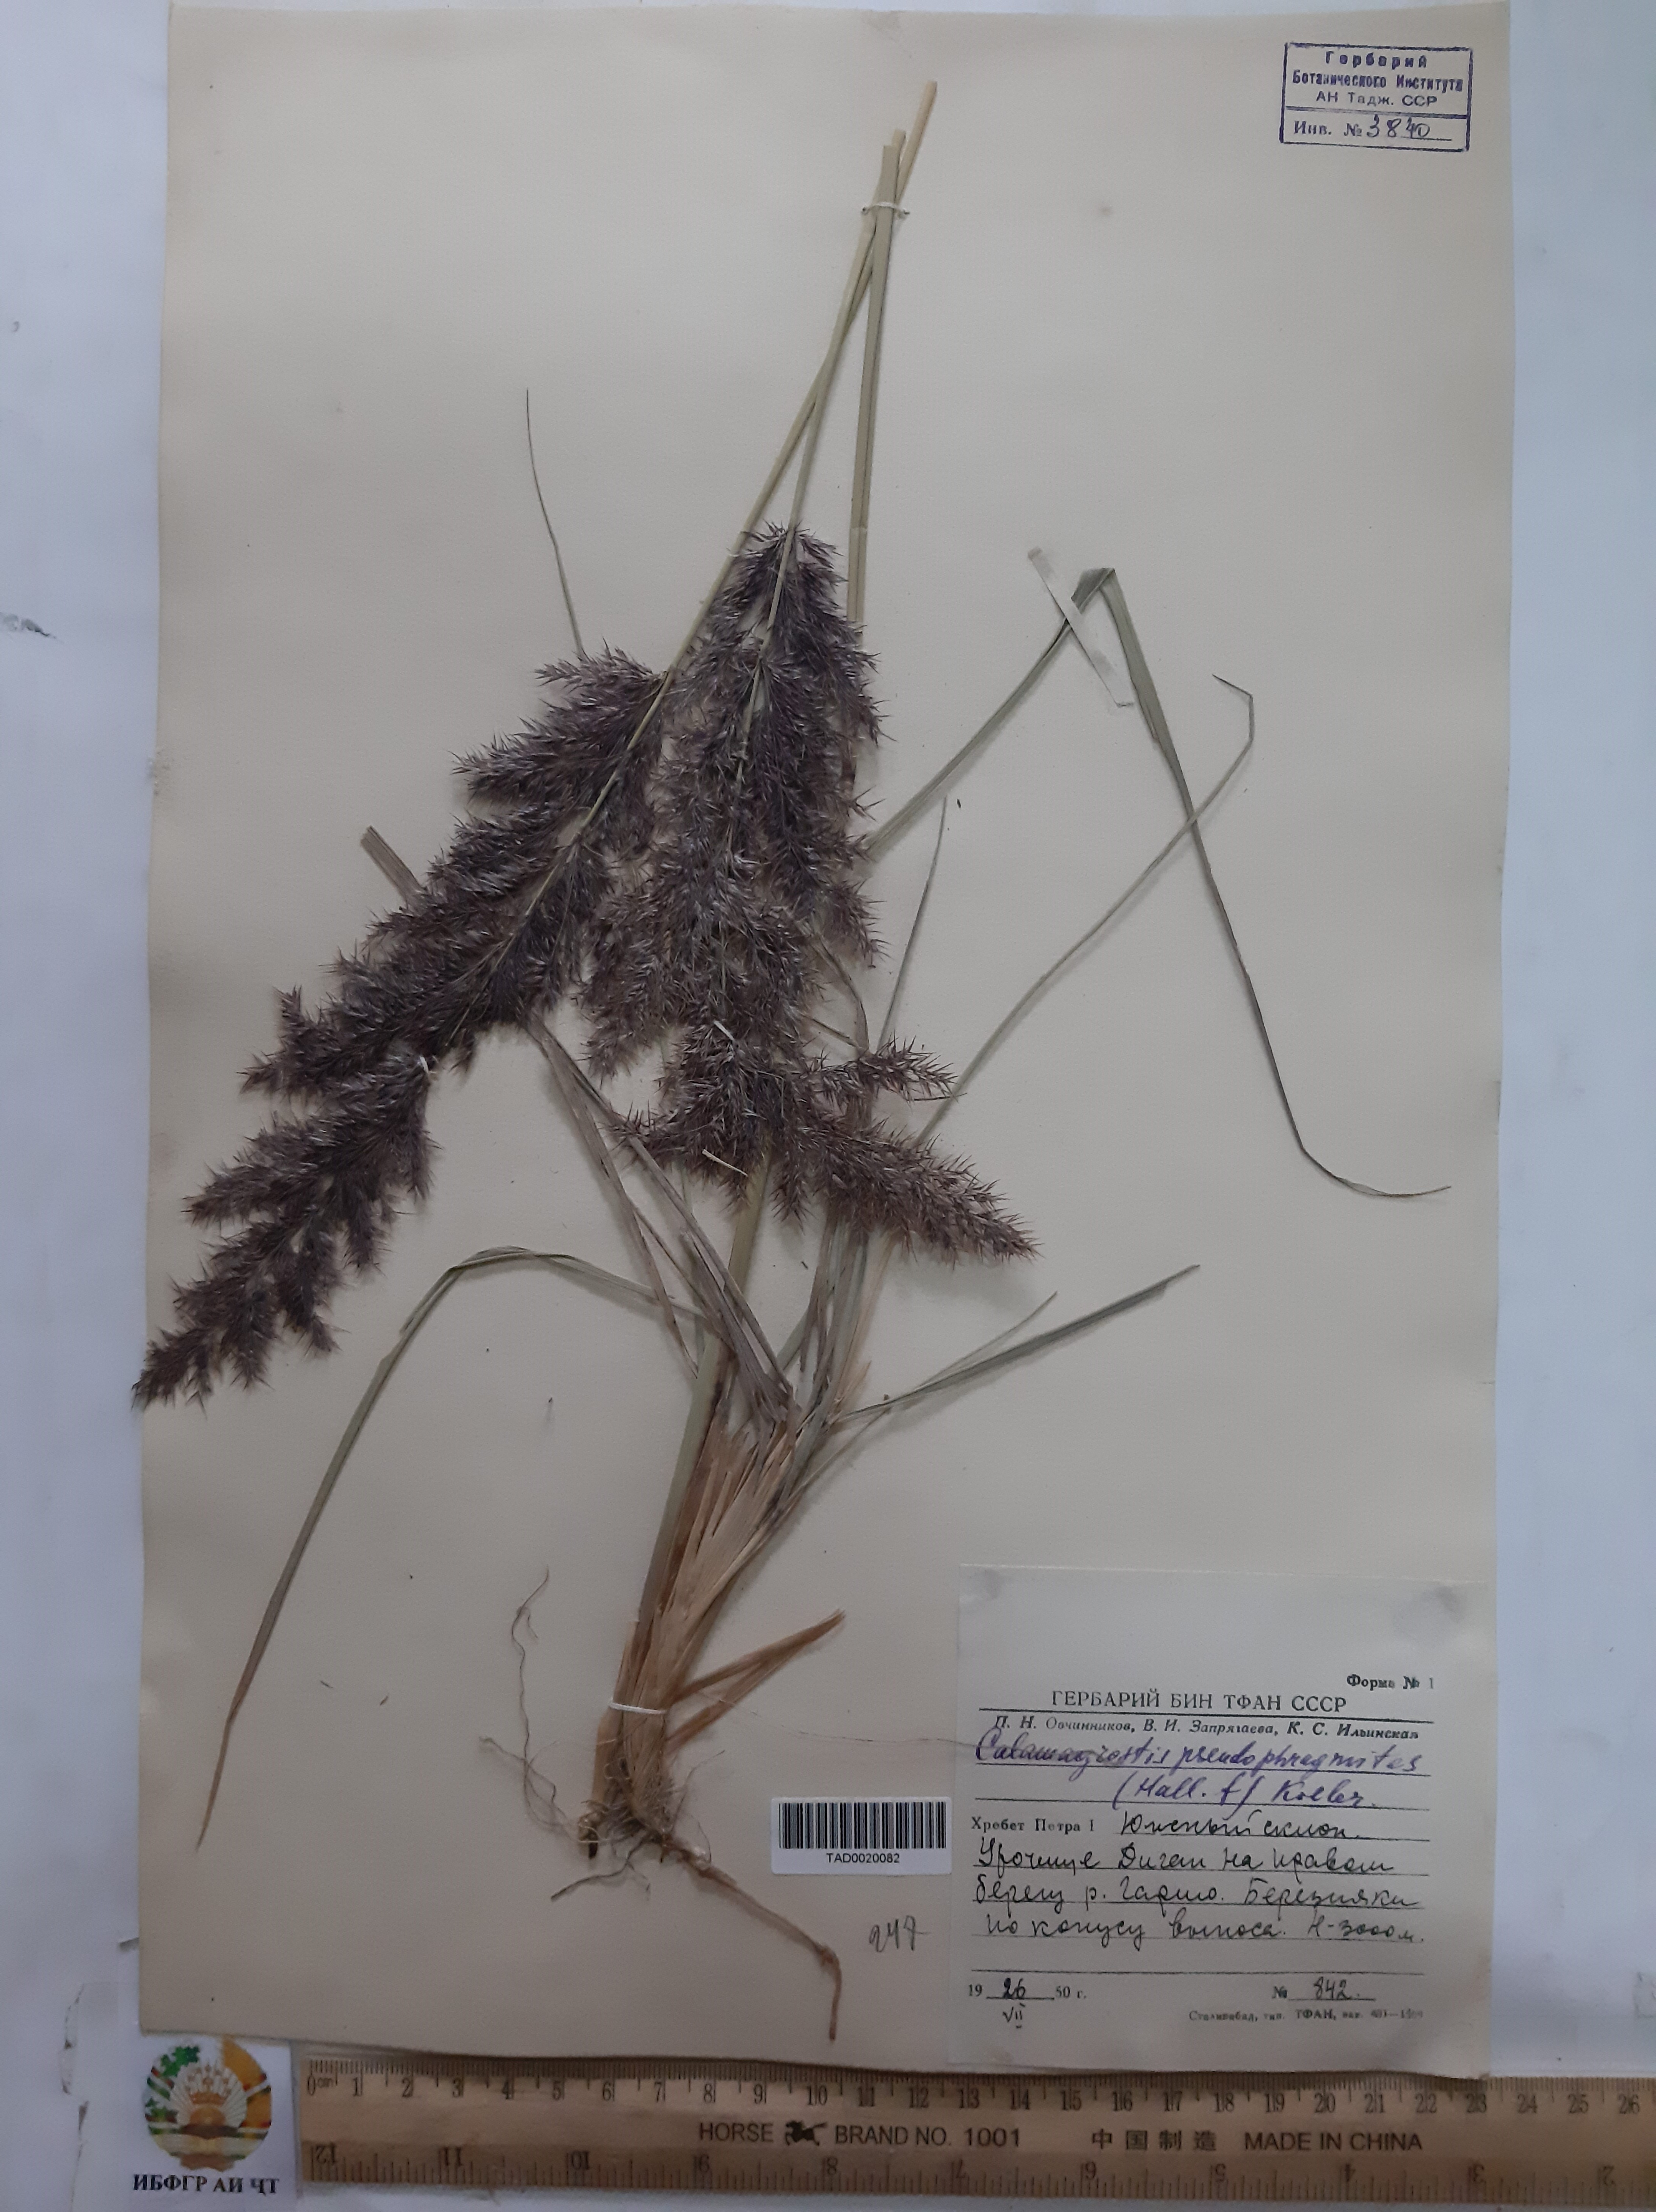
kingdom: Plantae
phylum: Tracheophyta
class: Liliopsida
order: Poales
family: Poaceae
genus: Calamagrostis
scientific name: Calamagrostis pseudophragmites
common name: Coastal small-reed
